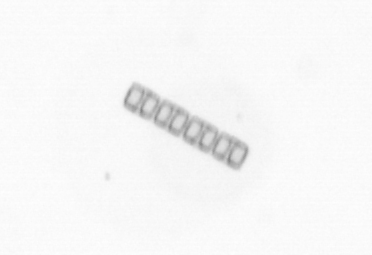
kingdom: Chromista
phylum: Ochrophyta
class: Bacillariophyceae
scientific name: Bacillariophyceae
